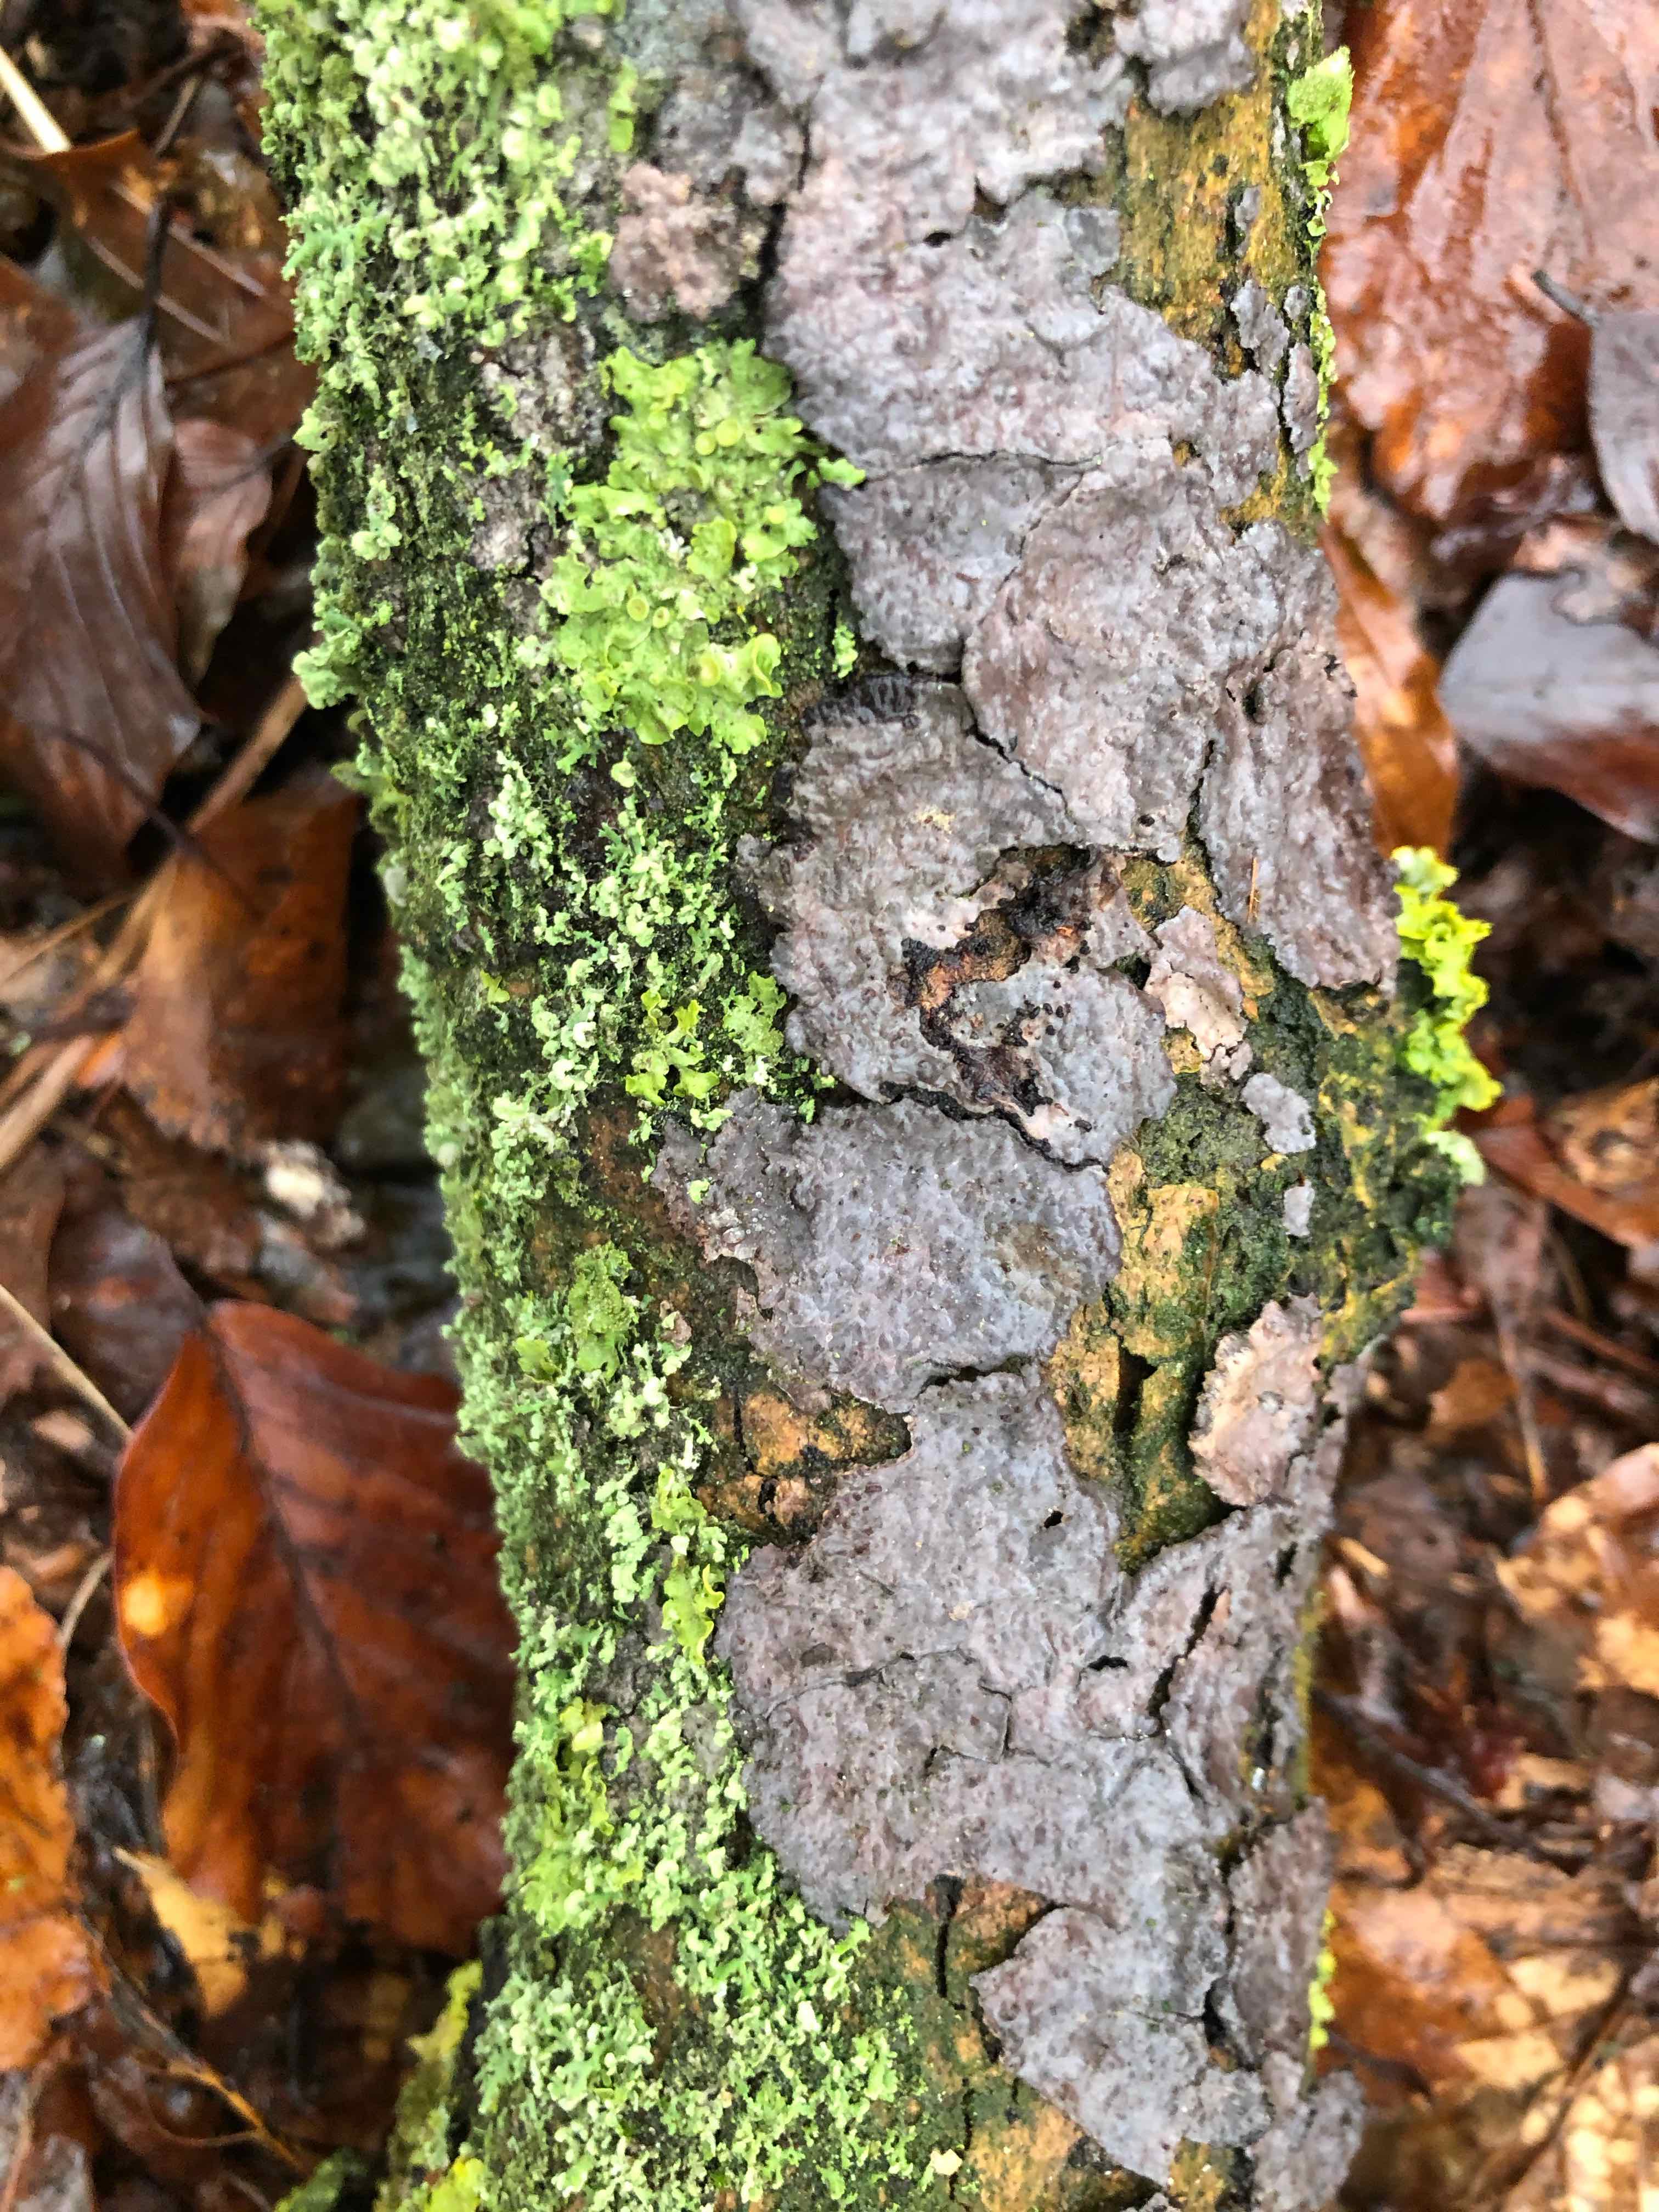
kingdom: Fungi
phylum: Basidiomycota
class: Agaricomycetes
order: Russulales
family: Peniophoraceae
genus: Peniophora
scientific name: Peniophora quercina
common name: ege-voksskind
